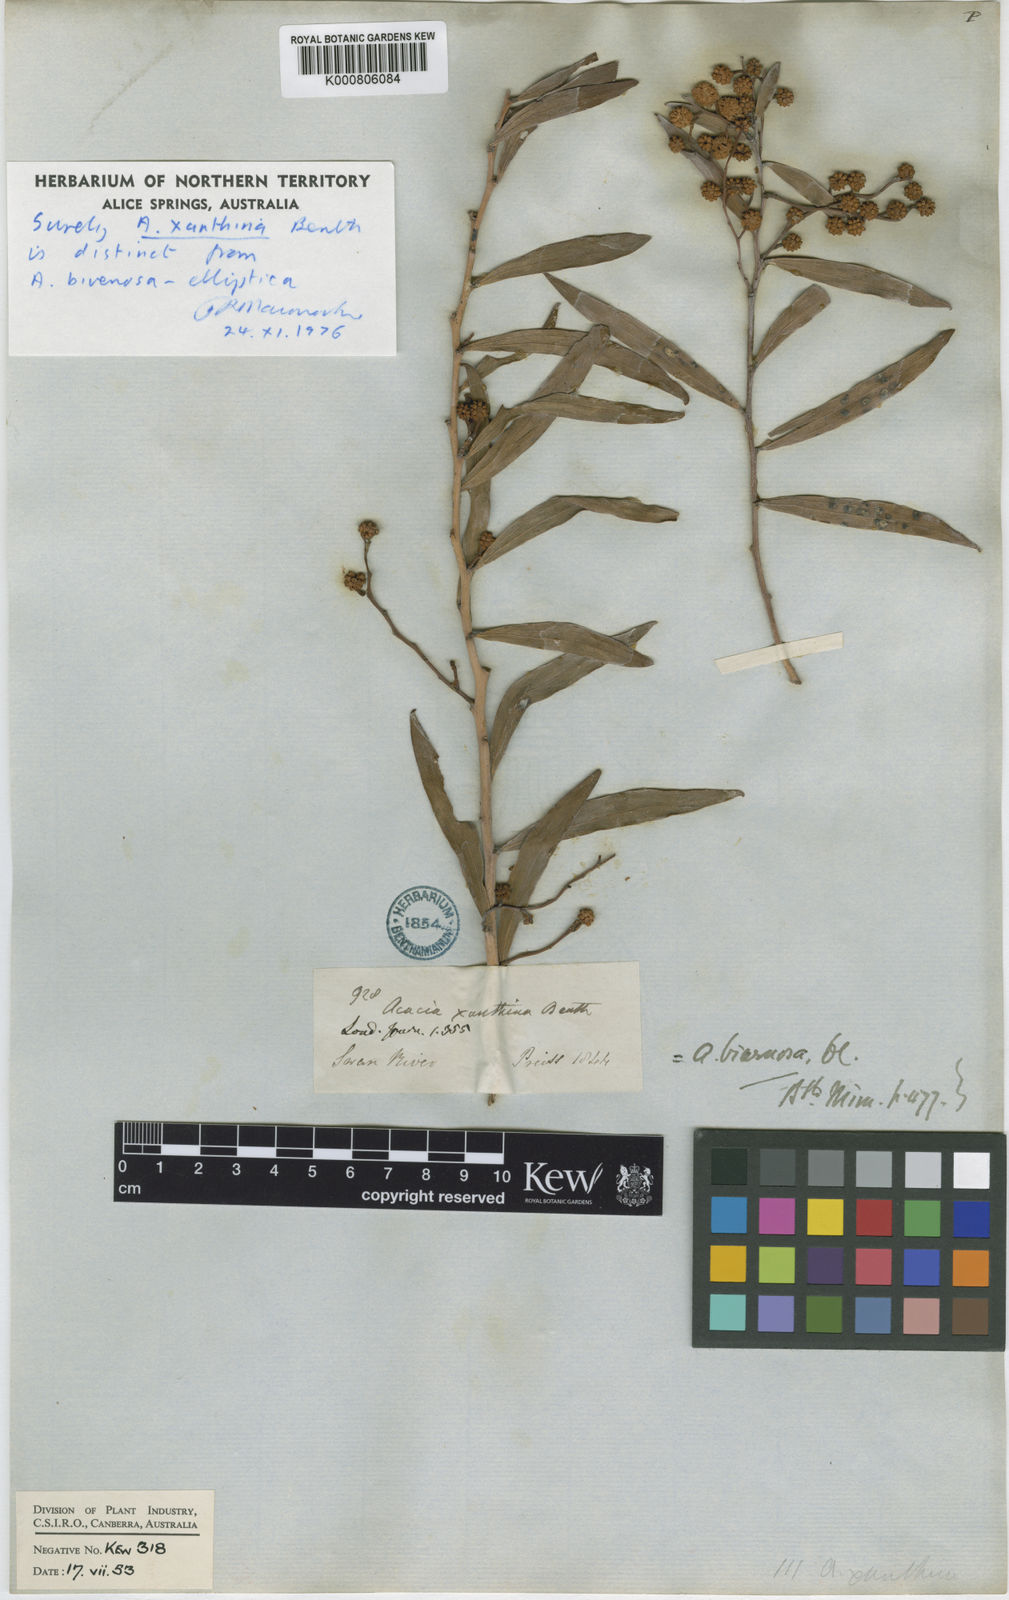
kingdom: Plantae
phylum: Tracheophyta
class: Magnoliopsida
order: Fabales
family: Fabaceae
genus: Acacia
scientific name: Acacia bivenosa
